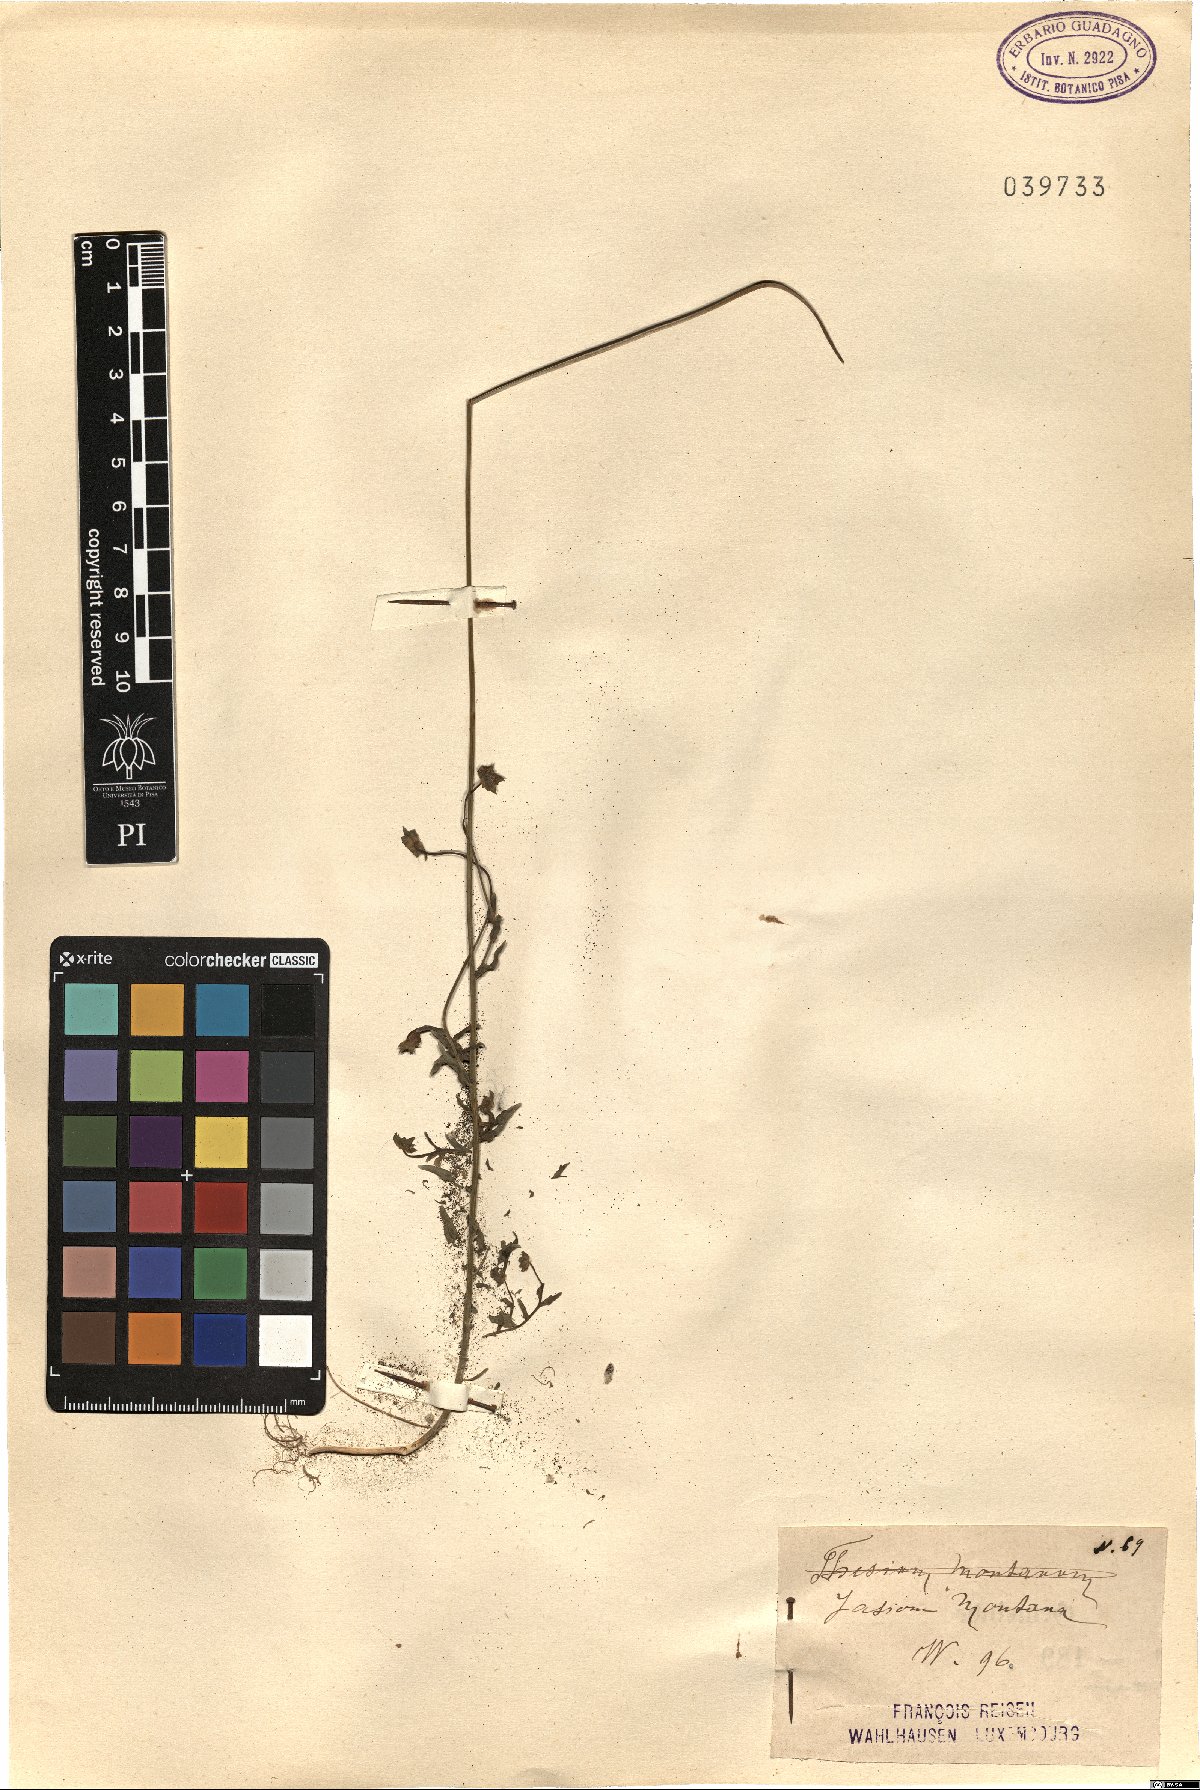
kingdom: Plantae
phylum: Tracheophyta
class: Magnoliopsida
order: Asterales
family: Campanulaceae
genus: Jasione
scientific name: Jasione montana
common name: Sheep's-bit
